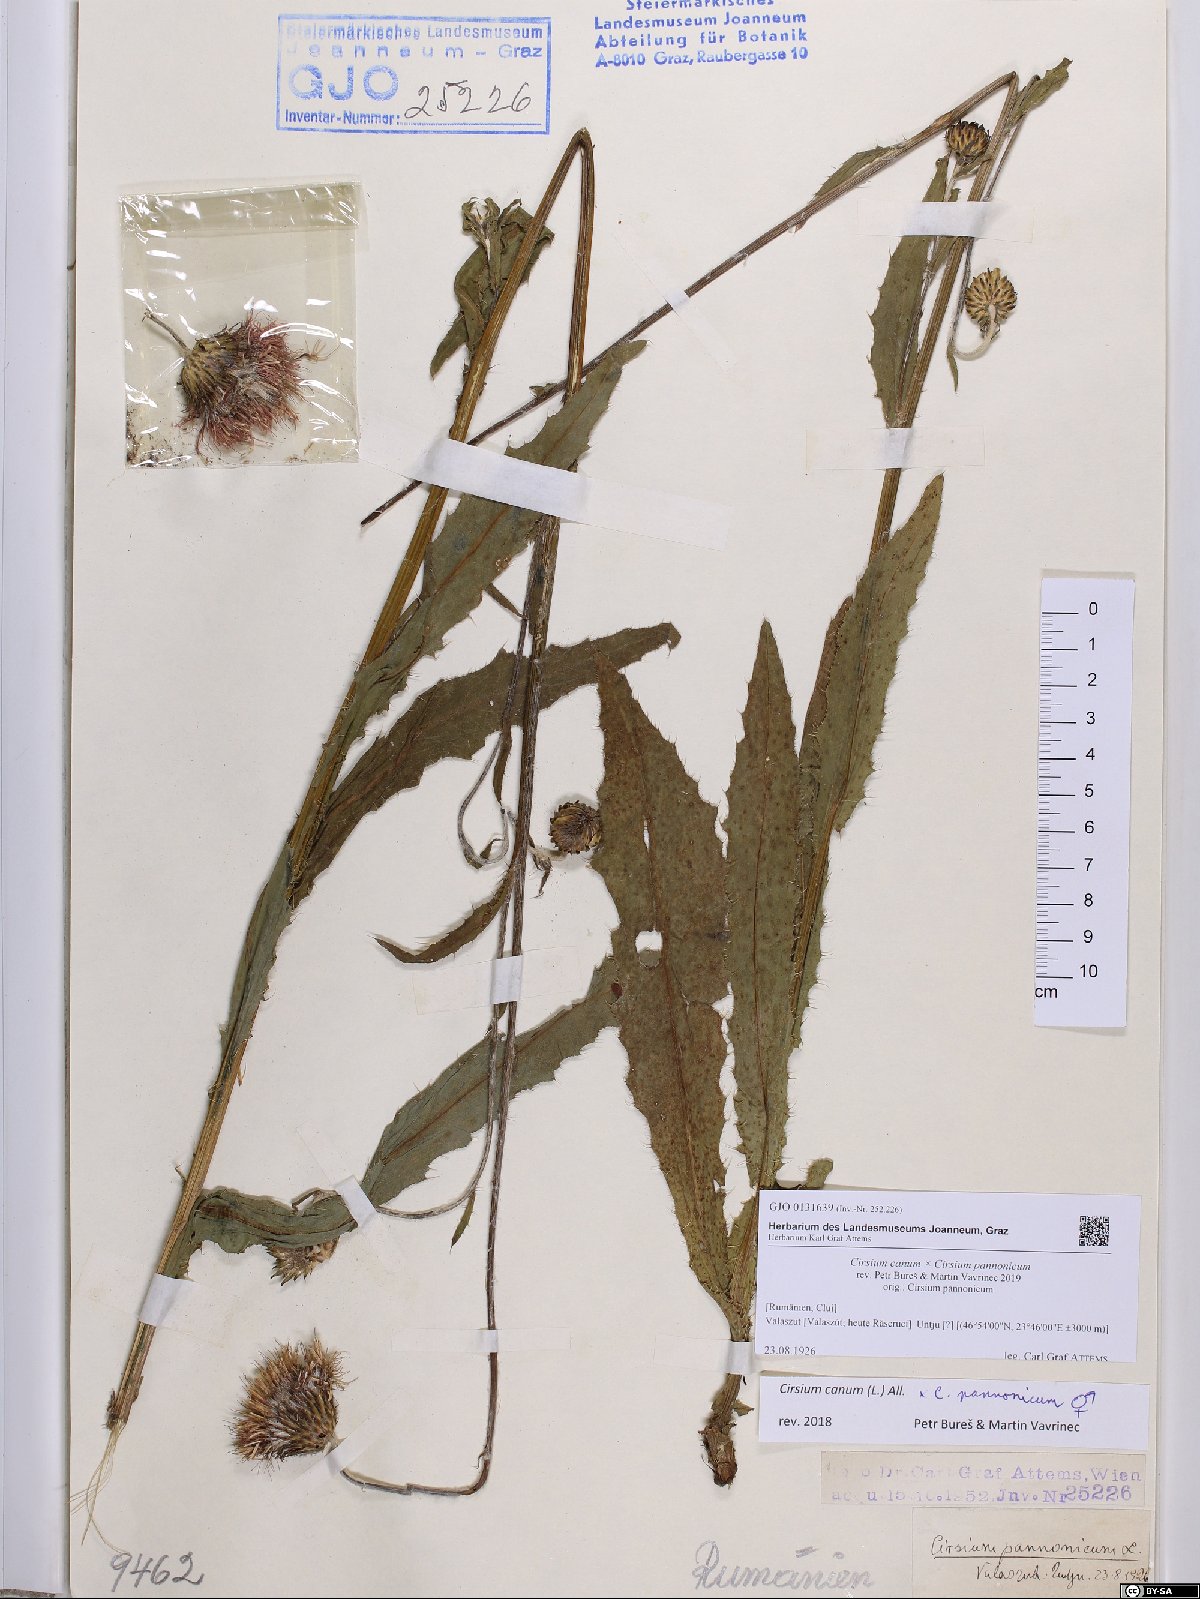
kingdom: Plantae
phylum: Tracheophyta
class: Magnoliopsida
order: Asterales
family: Asteraceae
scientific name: Asteraceae
